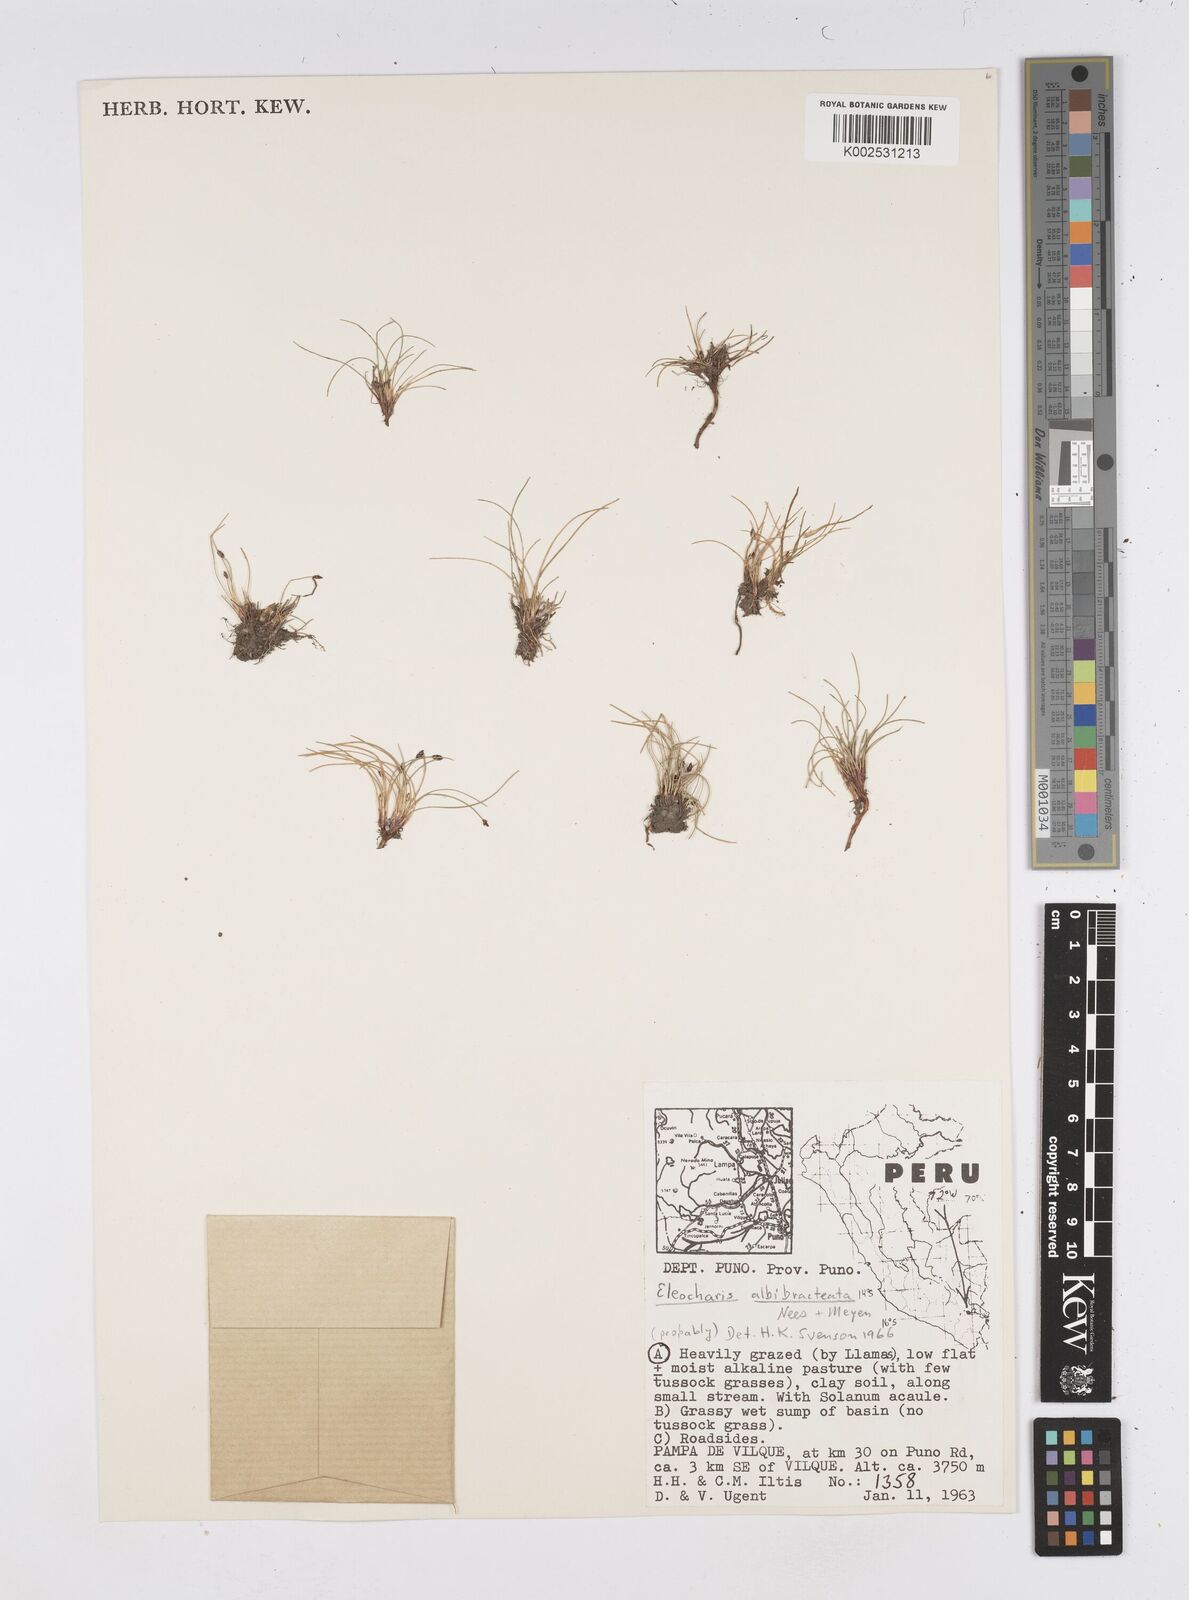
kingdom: Plantae
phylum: Tracheophyta
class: Liliopsida
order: Poales
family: Cyperaceae
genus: Eleocharis
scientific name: Eleocharis albibracteata
